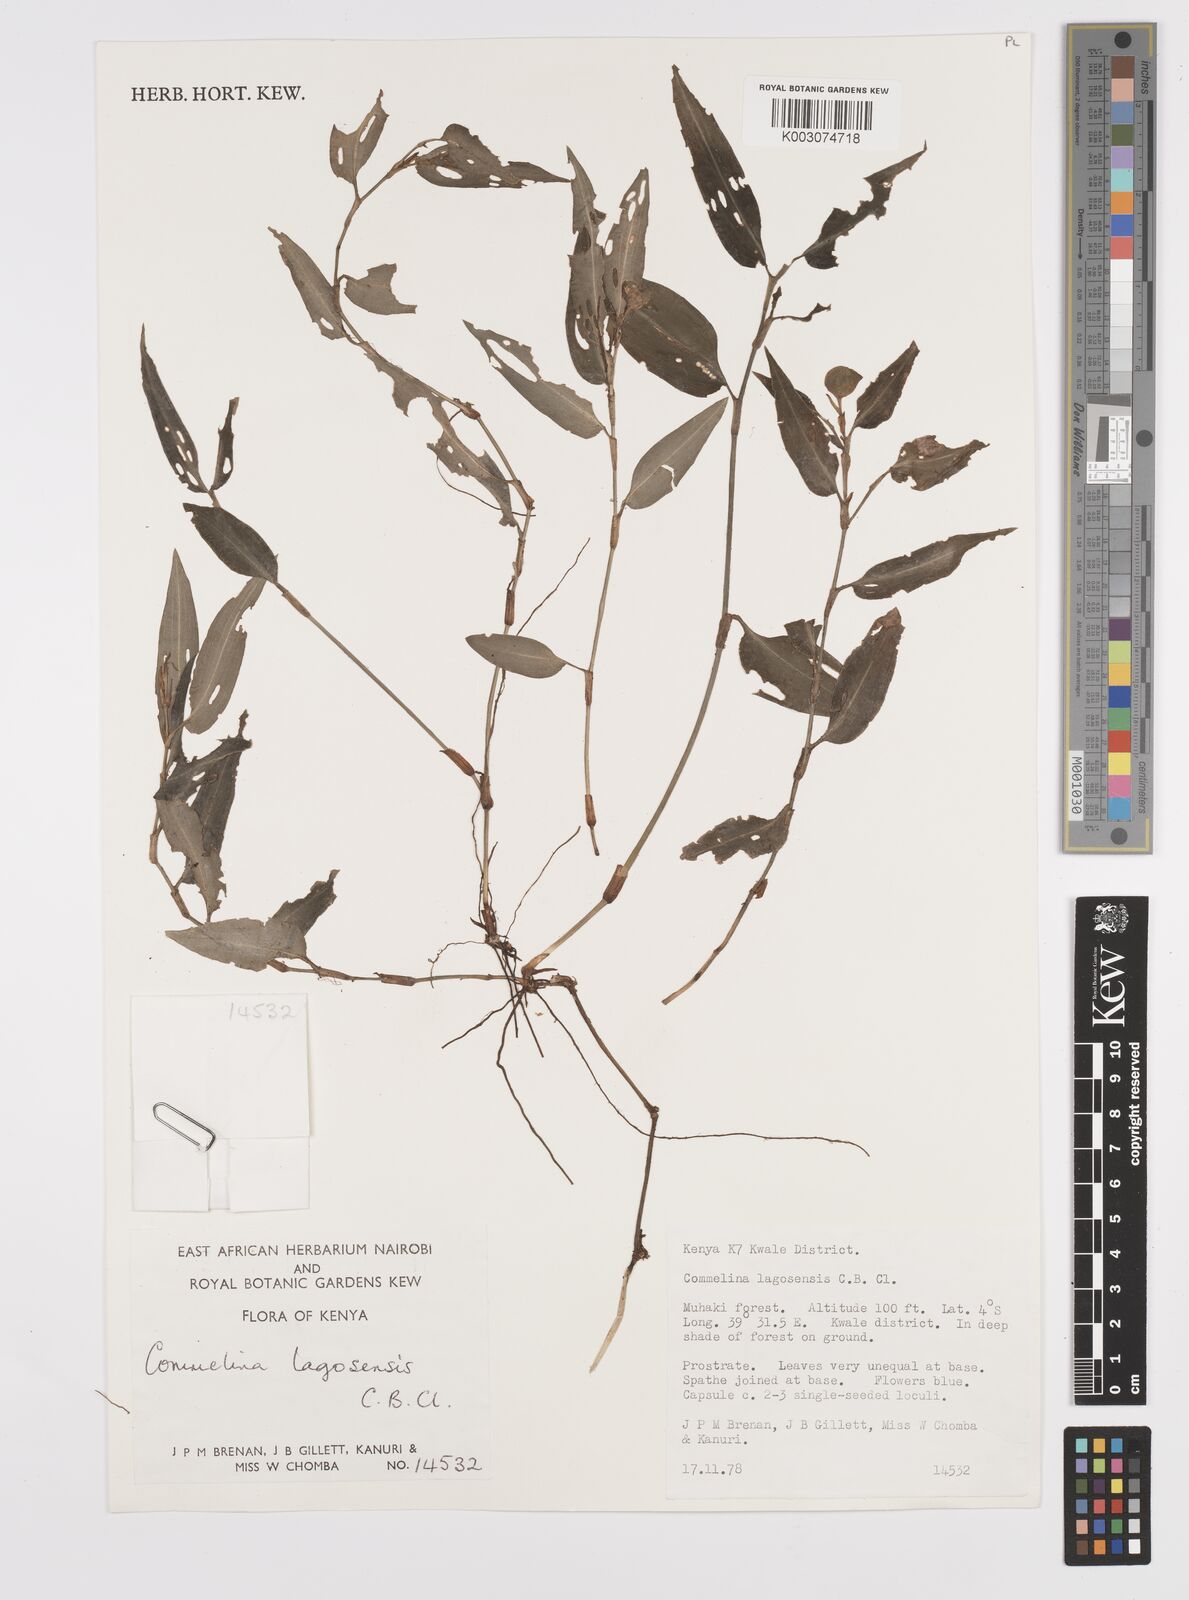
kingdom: Plantae
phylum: Tracheophyta
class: Liliopsida
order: Commelinales
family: Commelinaceae
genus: Commelina
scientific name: Commelina bracteosa
